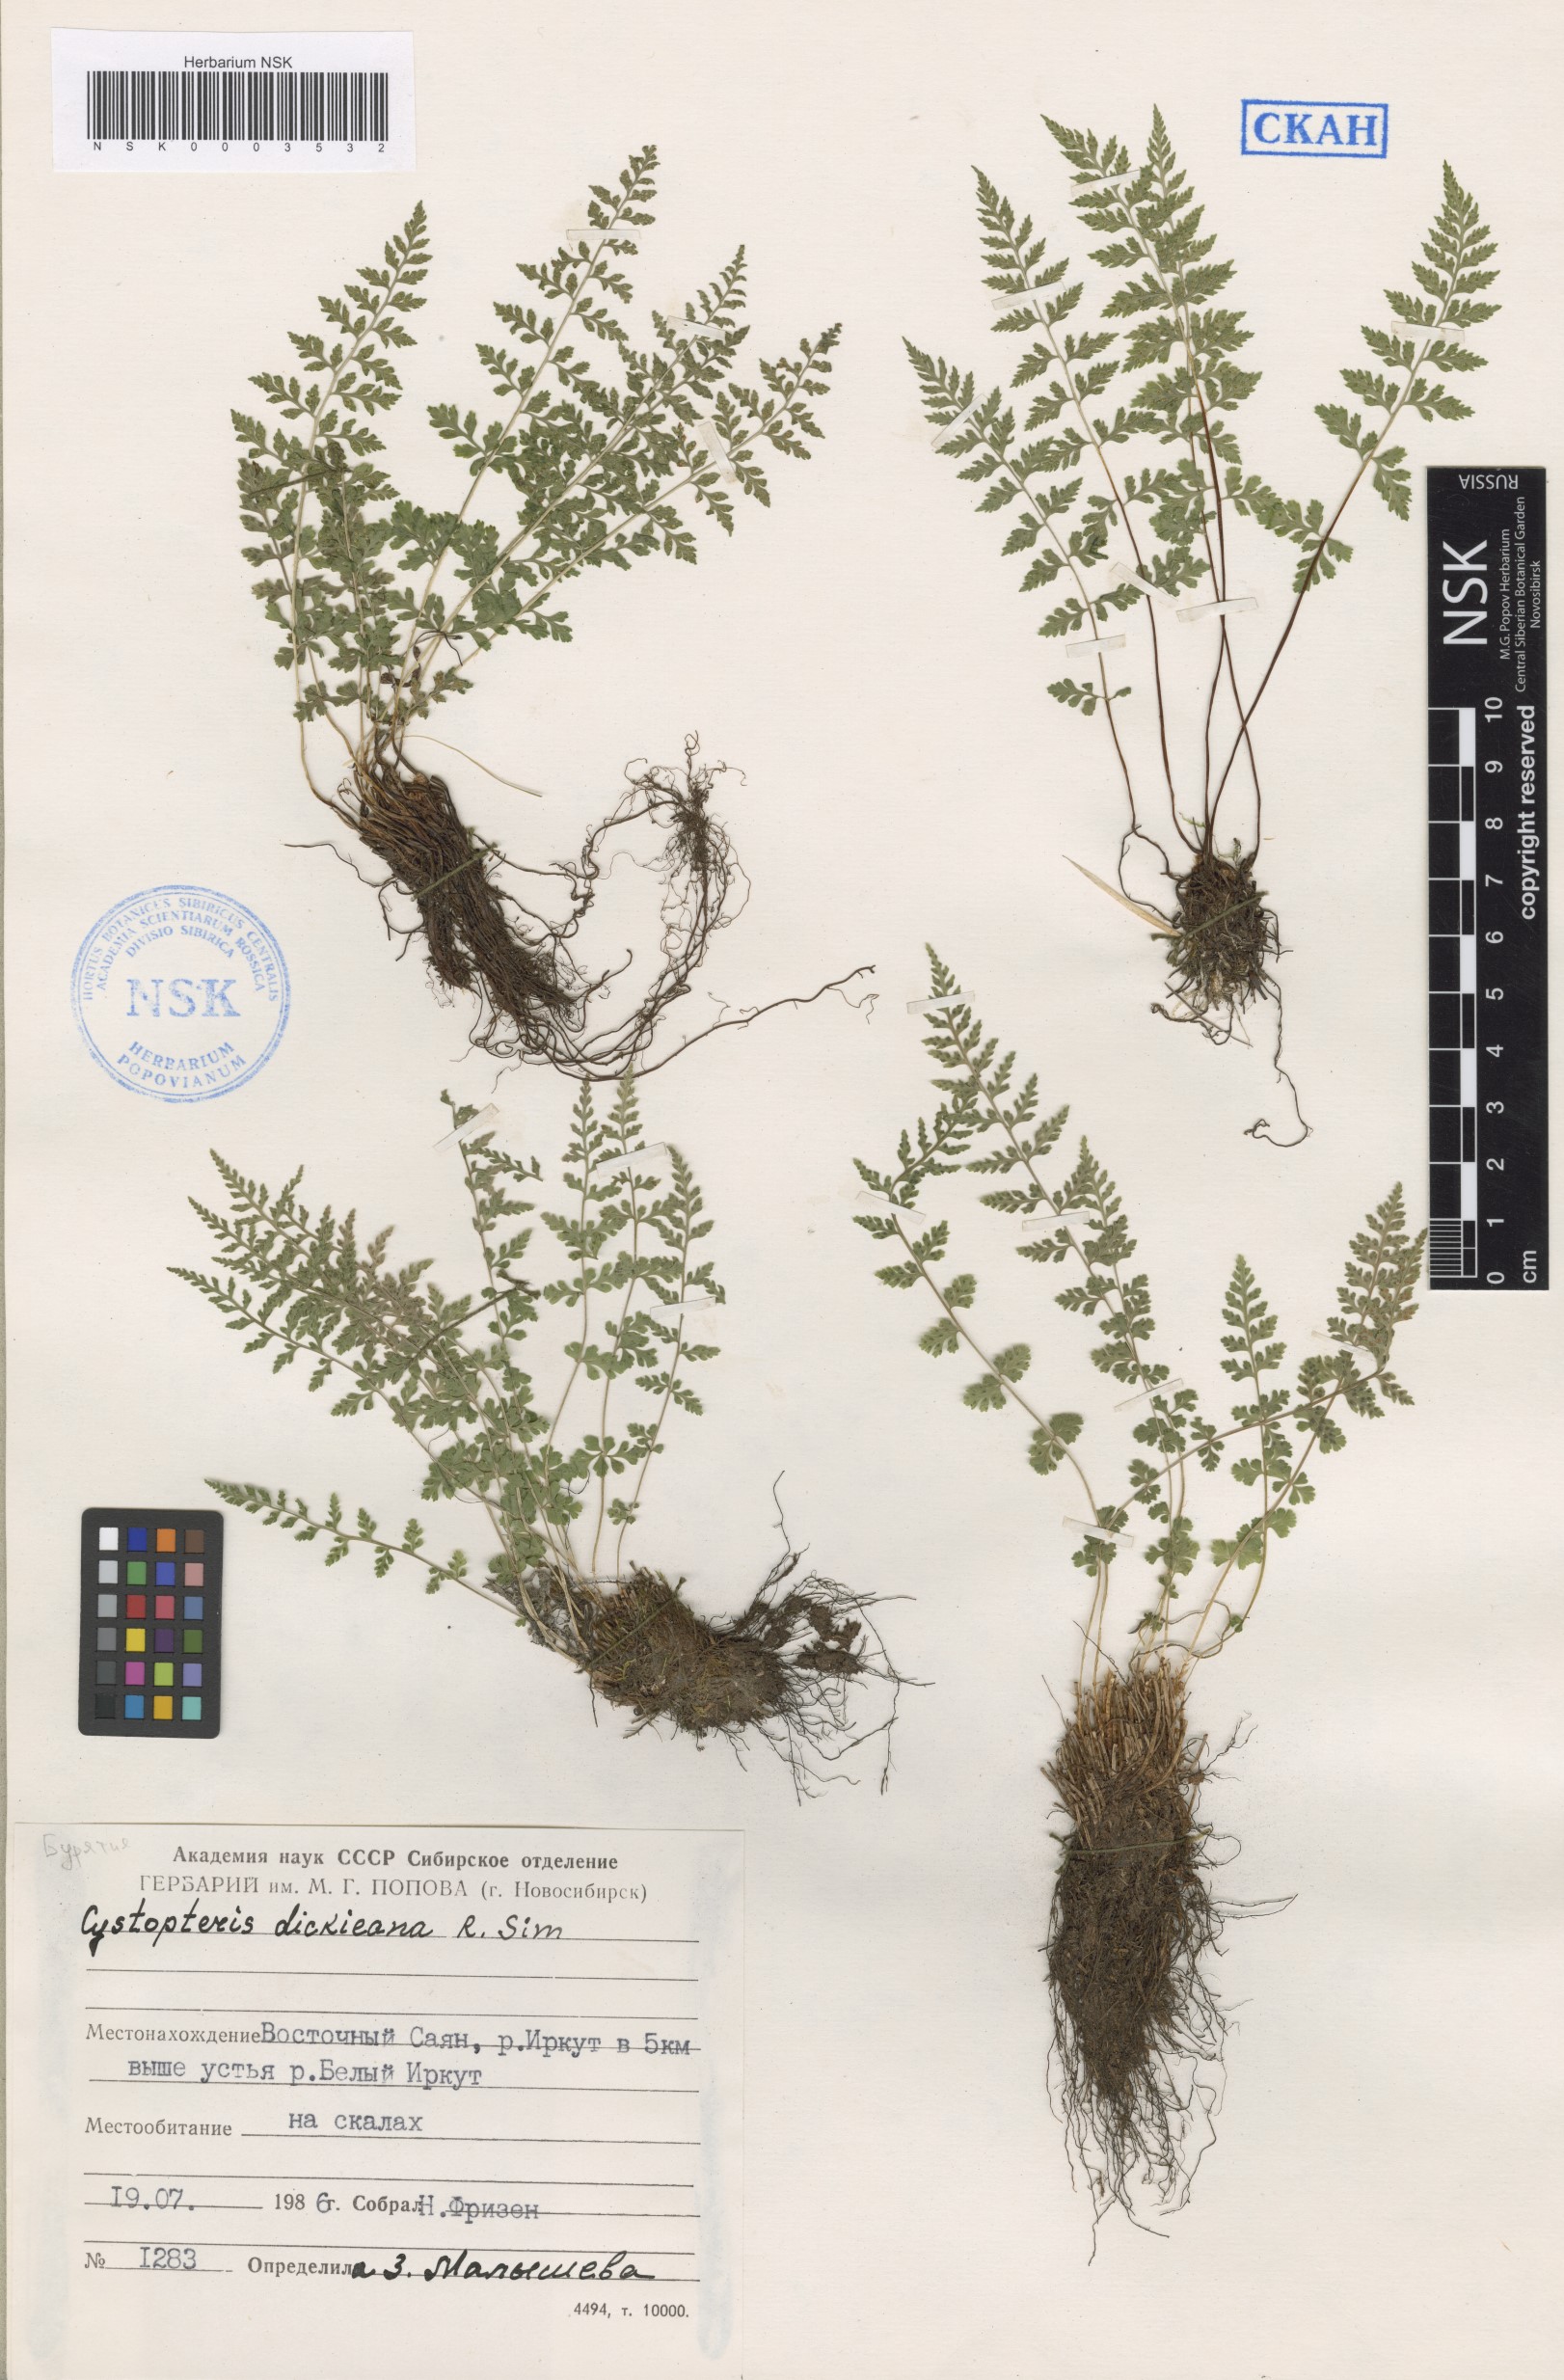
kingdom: Plantae
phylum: Tracheophyta
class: Polypodiopsida
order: Polypodiales
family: Cystopteridaceae
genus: Cystopteris
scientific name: Cystopteris dickieana
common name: Dickie's bladder-fern
